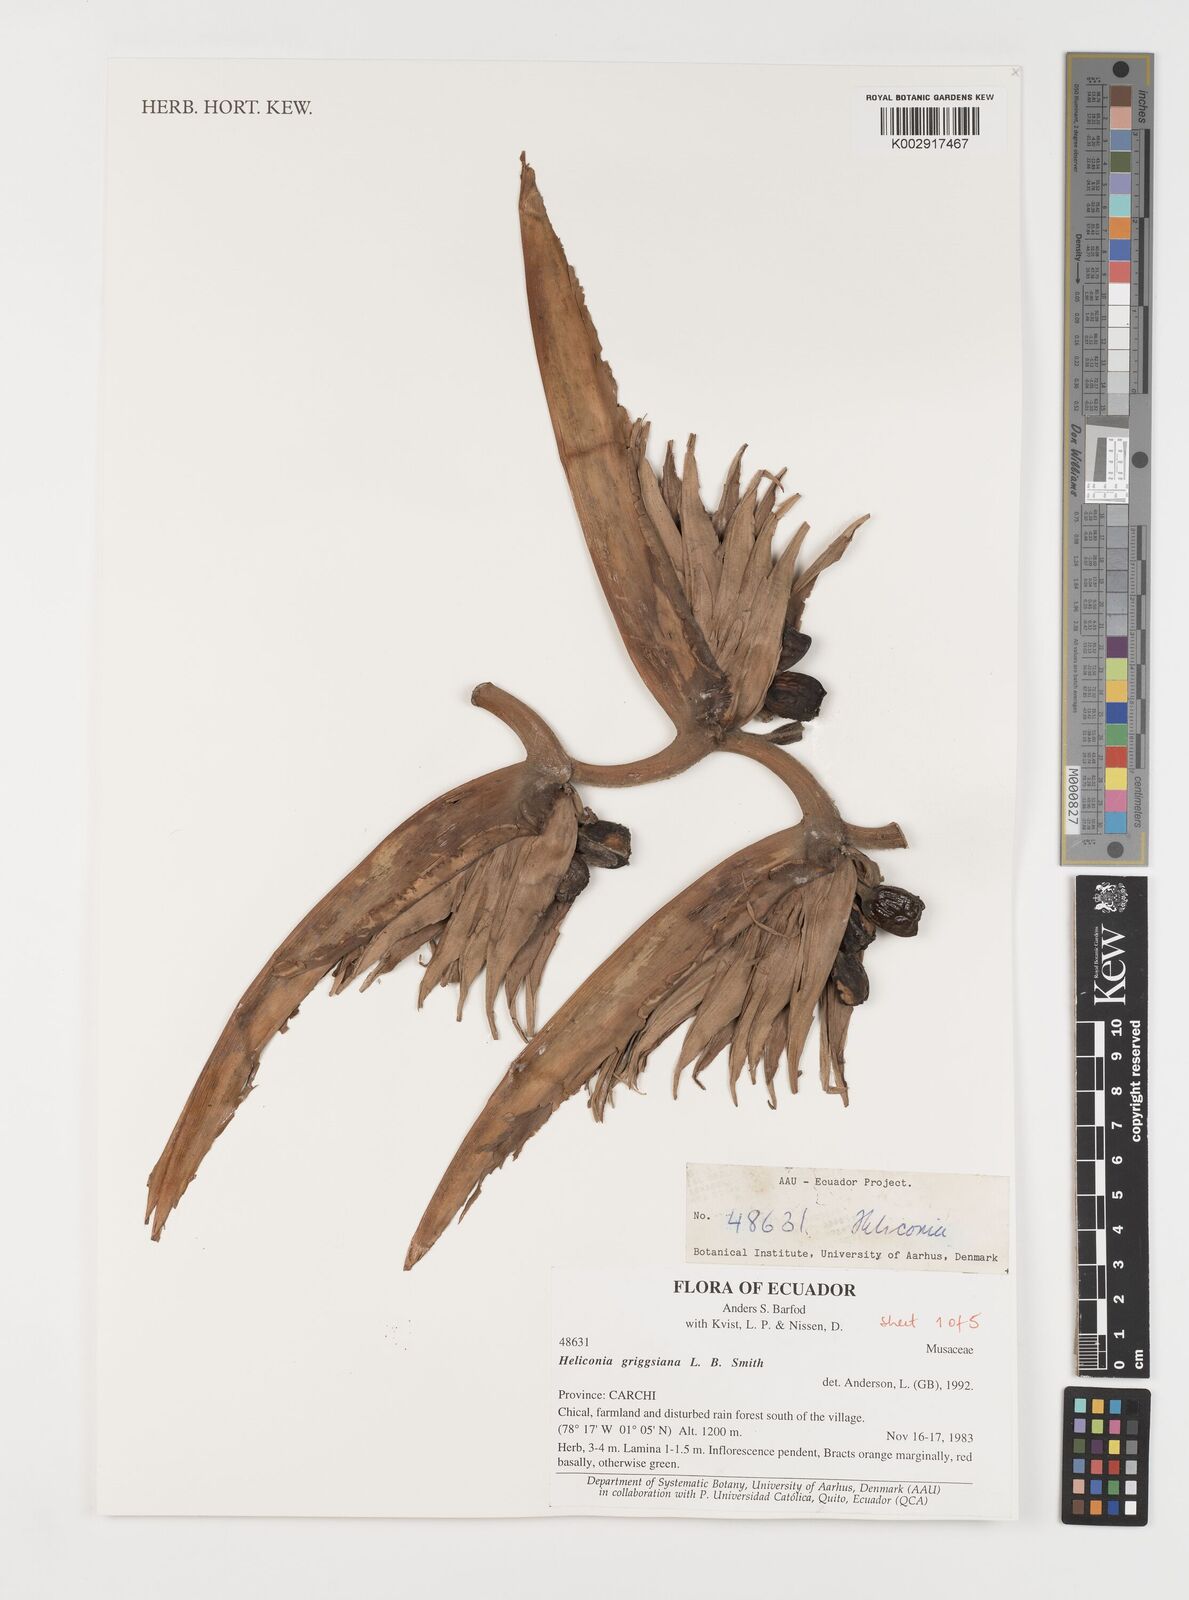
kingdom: Plantae
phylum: Tracheophyta
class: Liliopsida
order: Zingiberales
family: Heliconiaceae
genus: Heliconia
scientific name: Heliconia griggsiana
